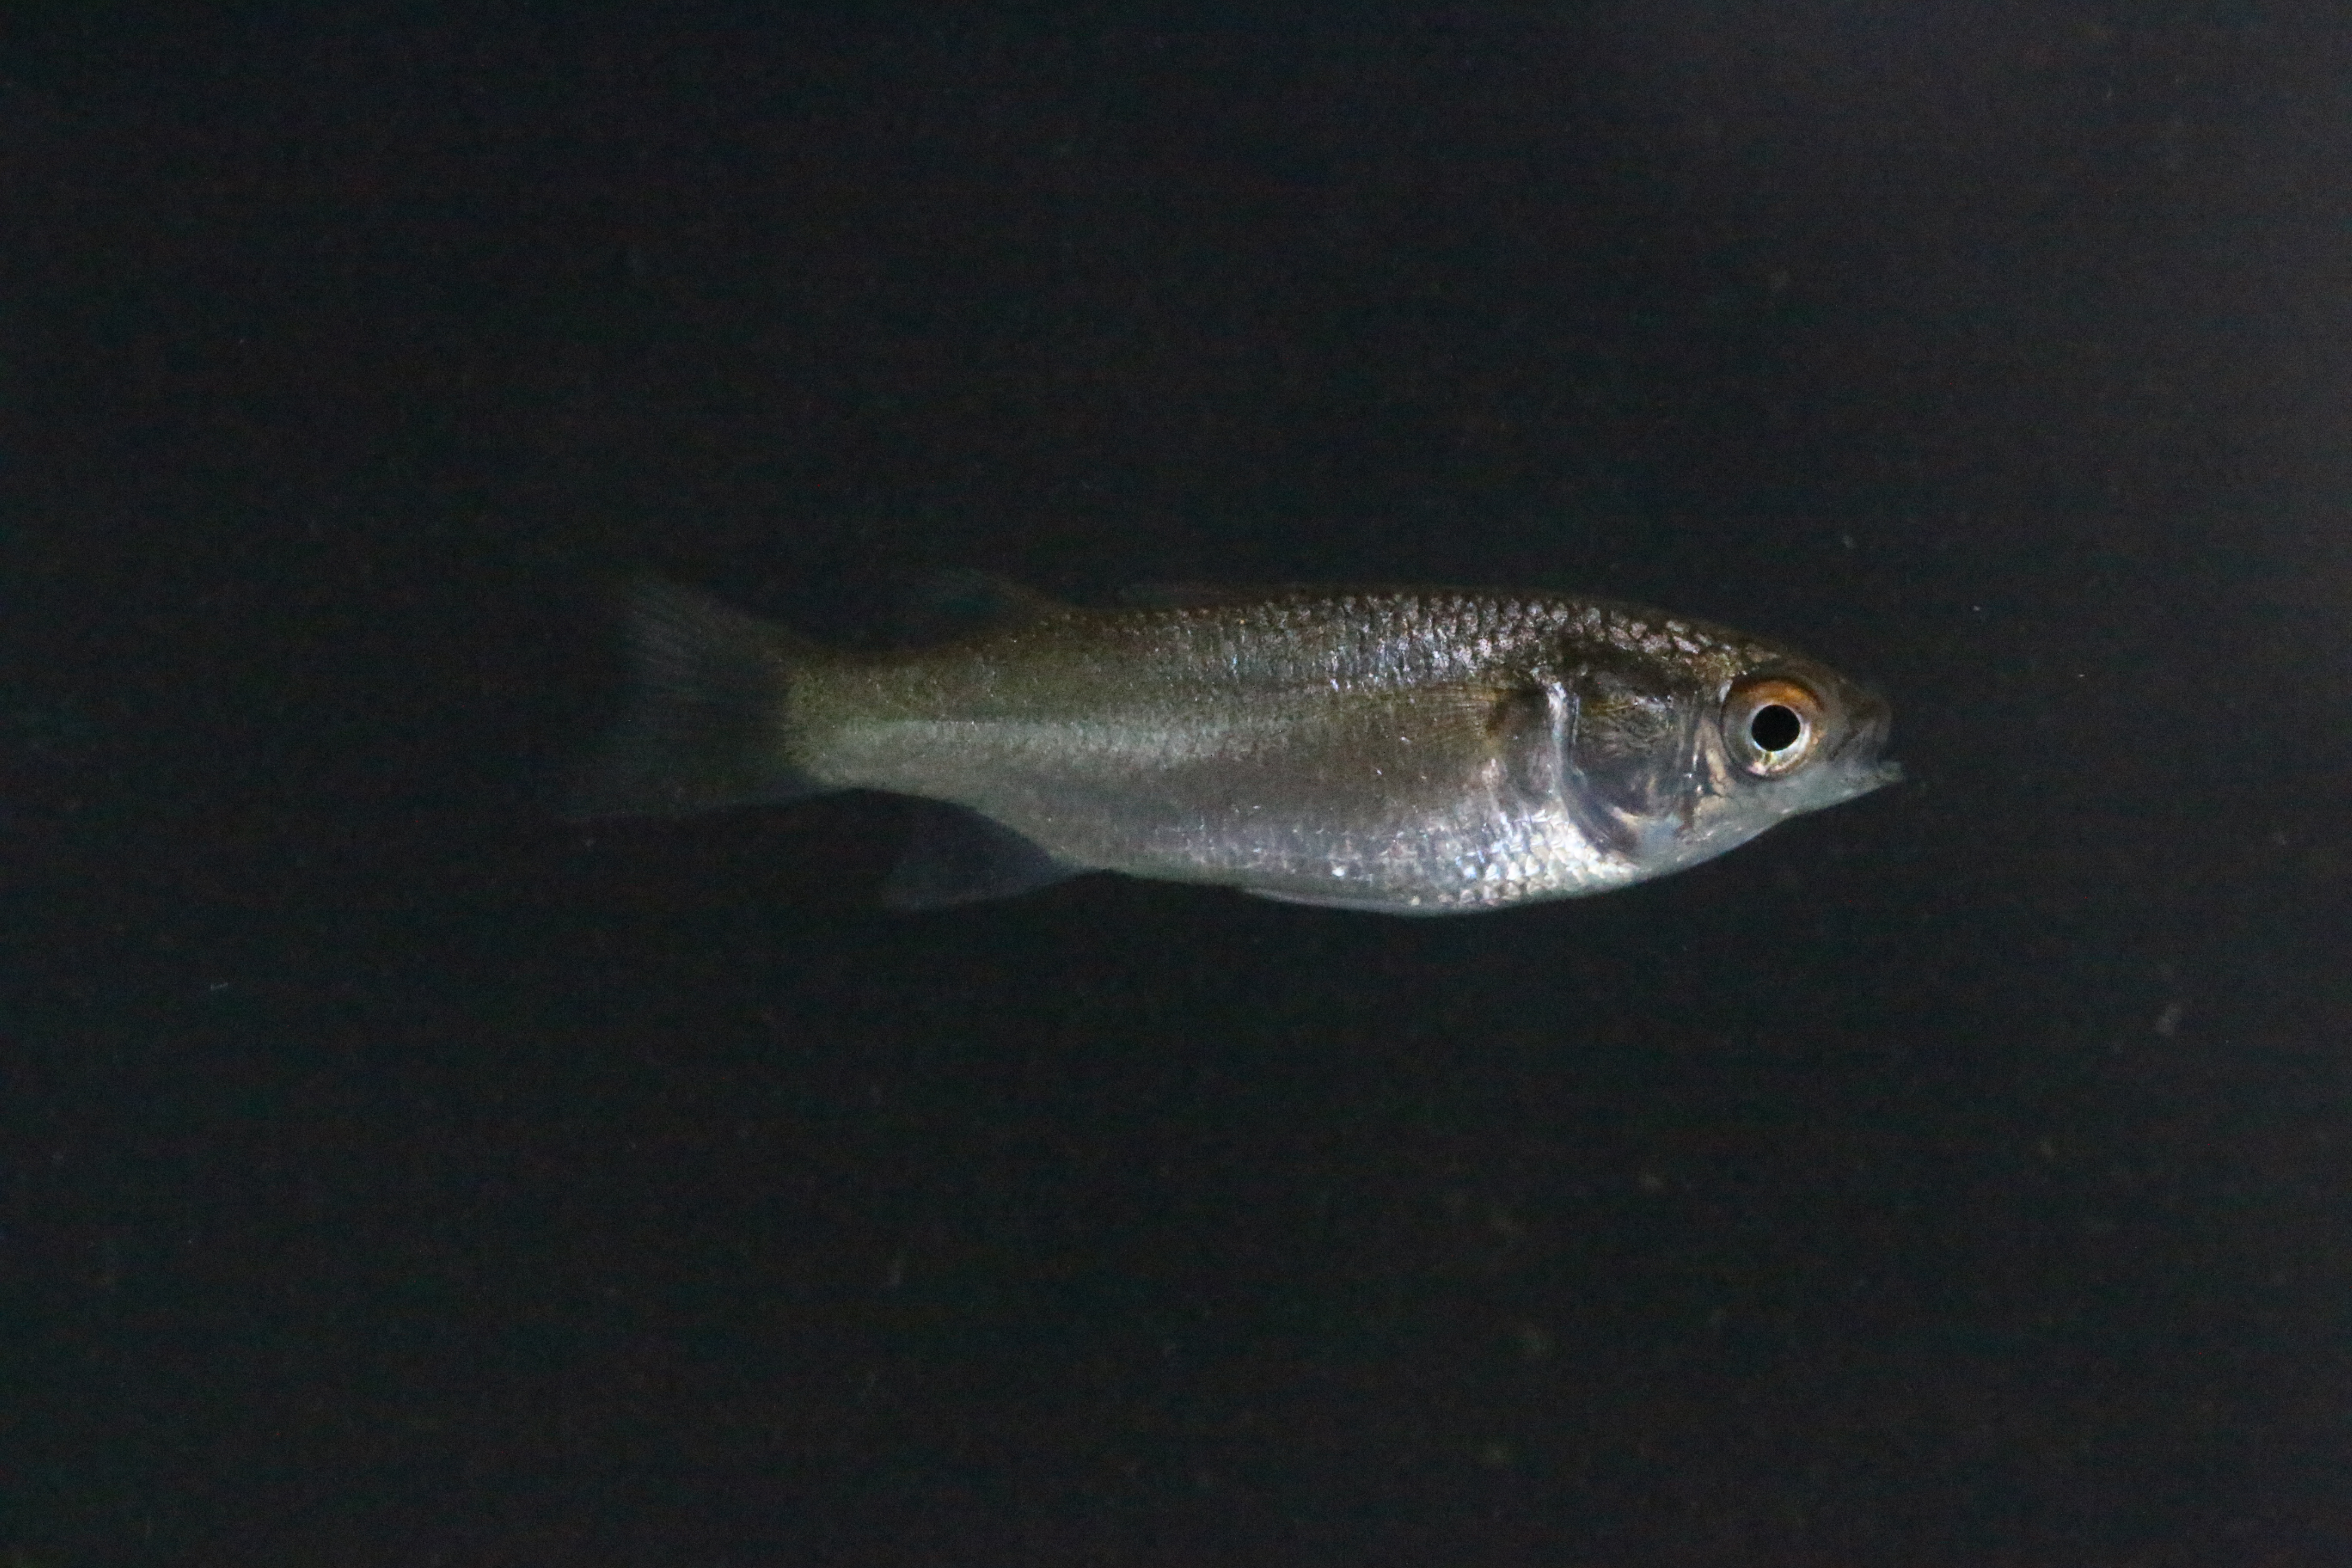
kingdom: Animalia
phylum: Chordata
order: Mugiliformes
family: Mugilidae
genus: Crenimugil
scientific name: Crenimugil buchanani
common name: Bluetail mullet
